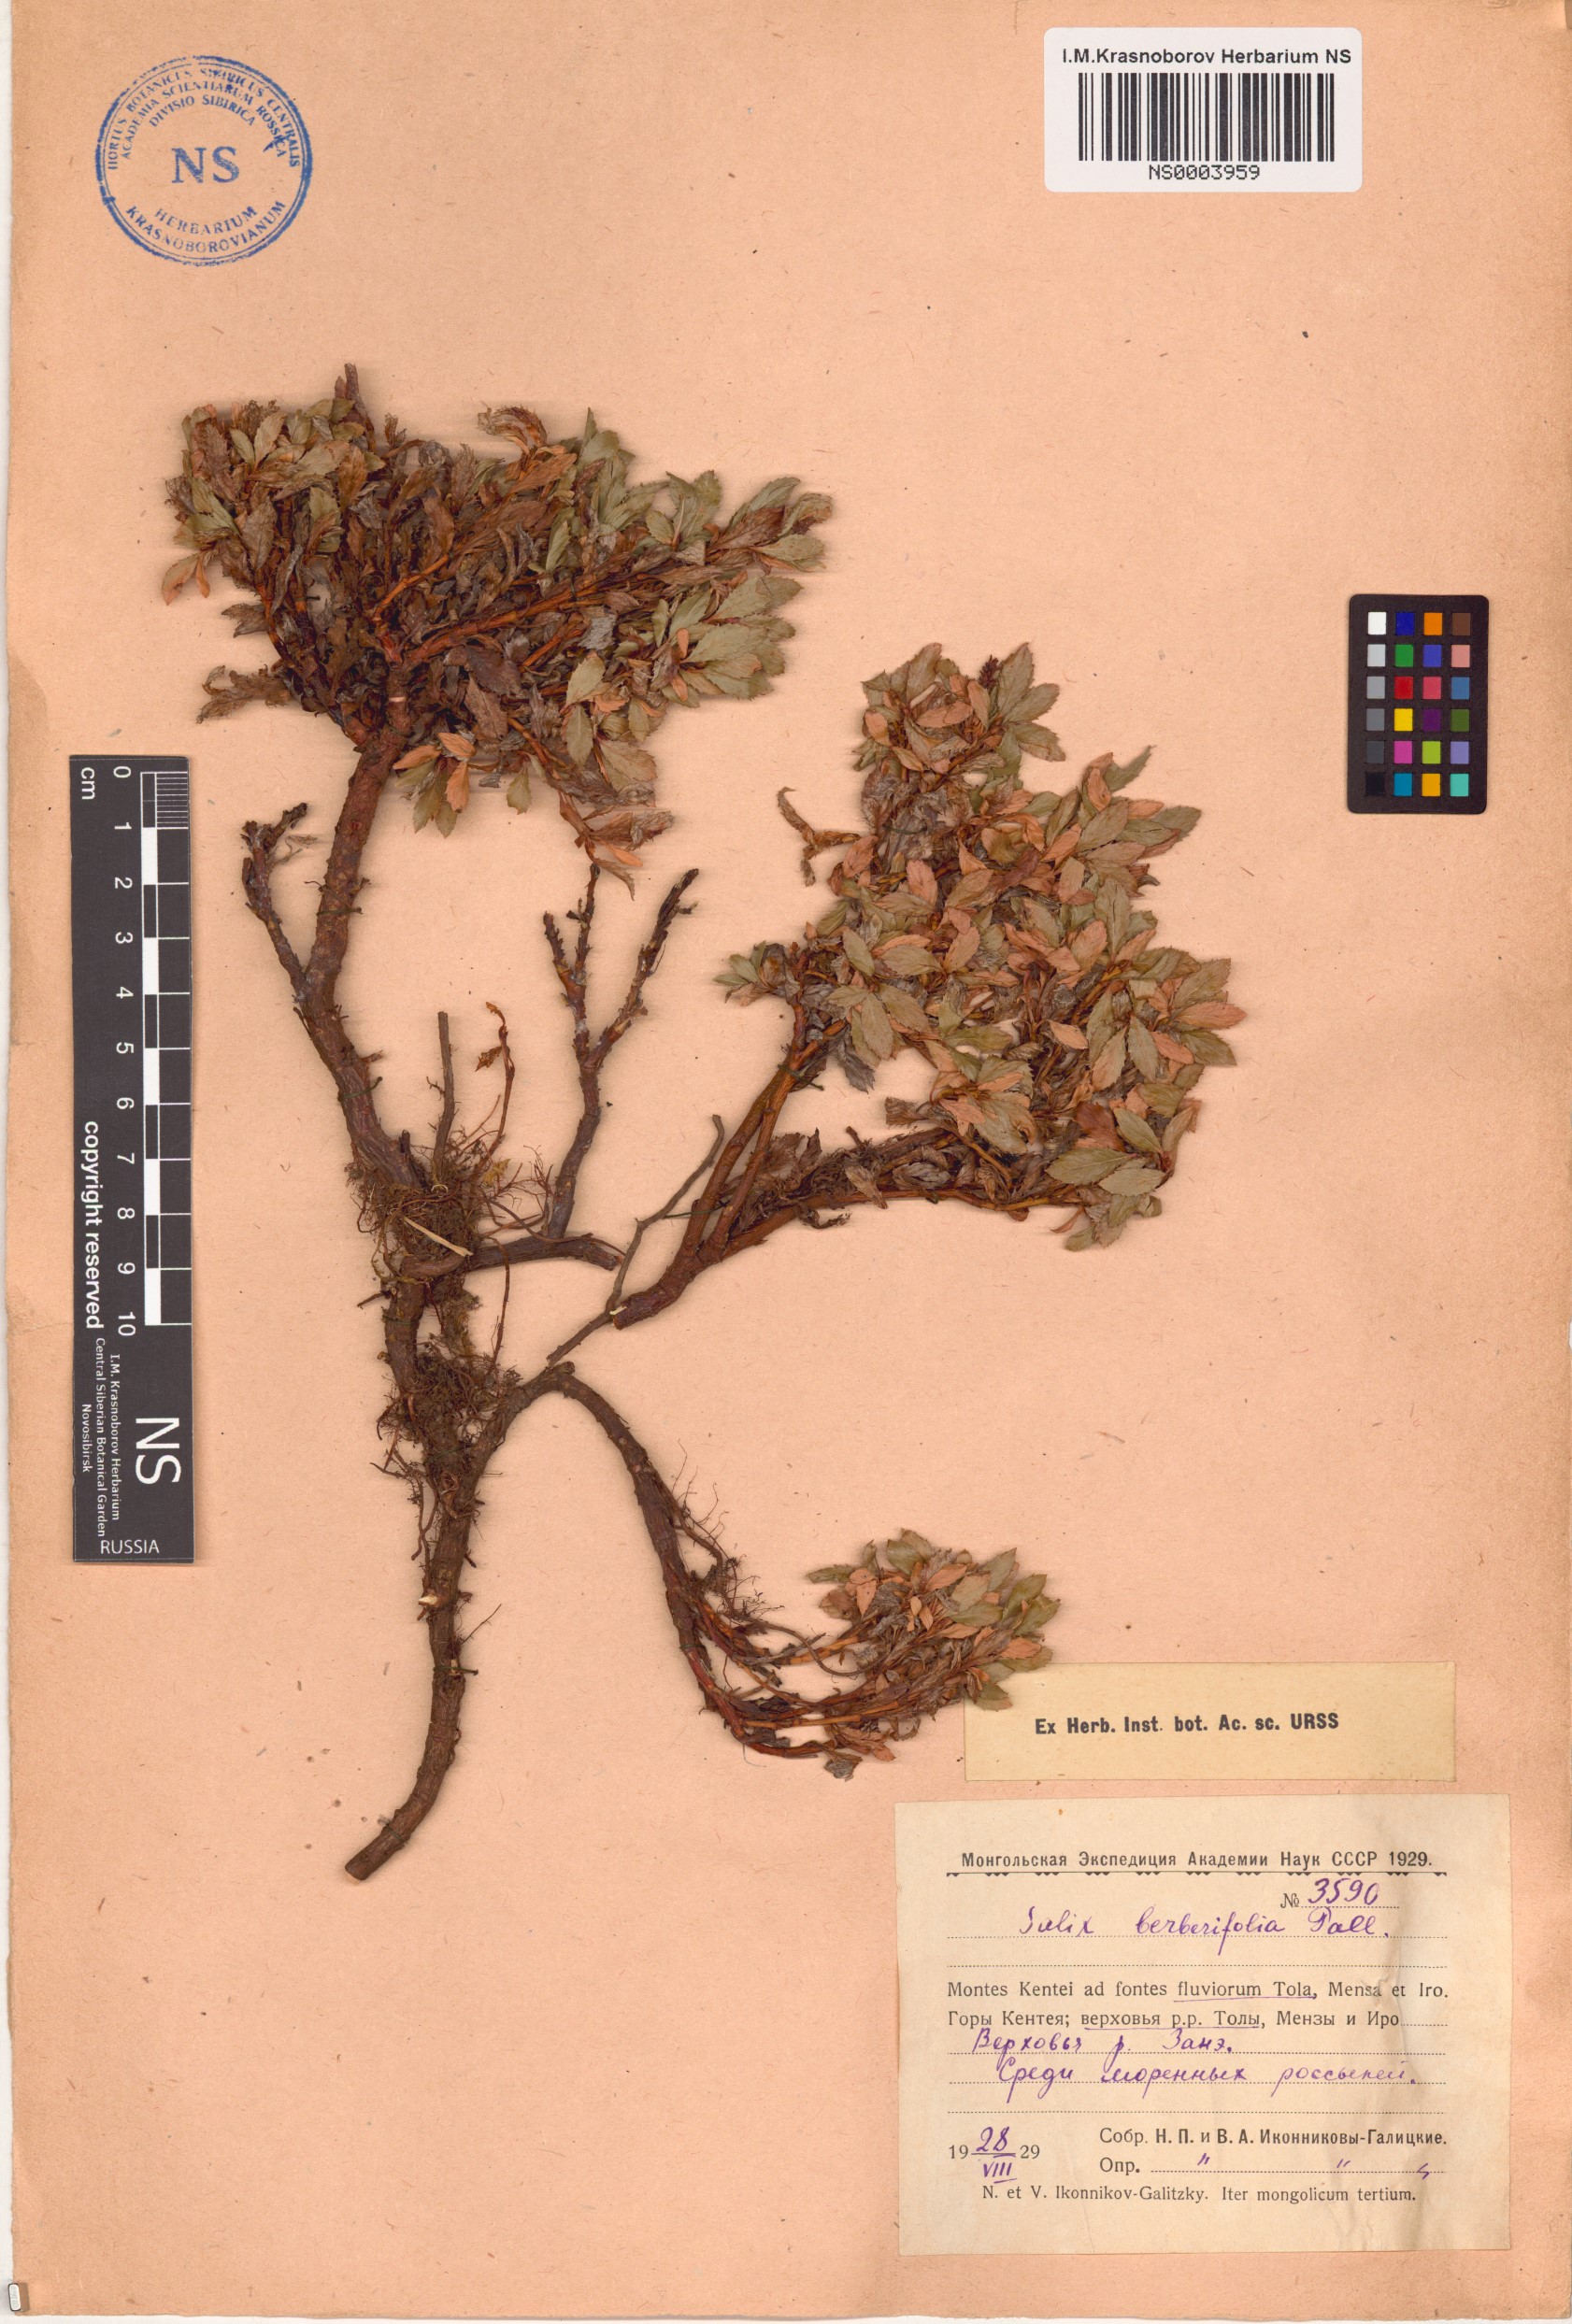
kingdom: Plantae
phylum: Tracheophyta
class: Magnoliopsida
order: Malpighiales
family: Salicaceae
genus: Salix
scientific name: Salix berberifolia
